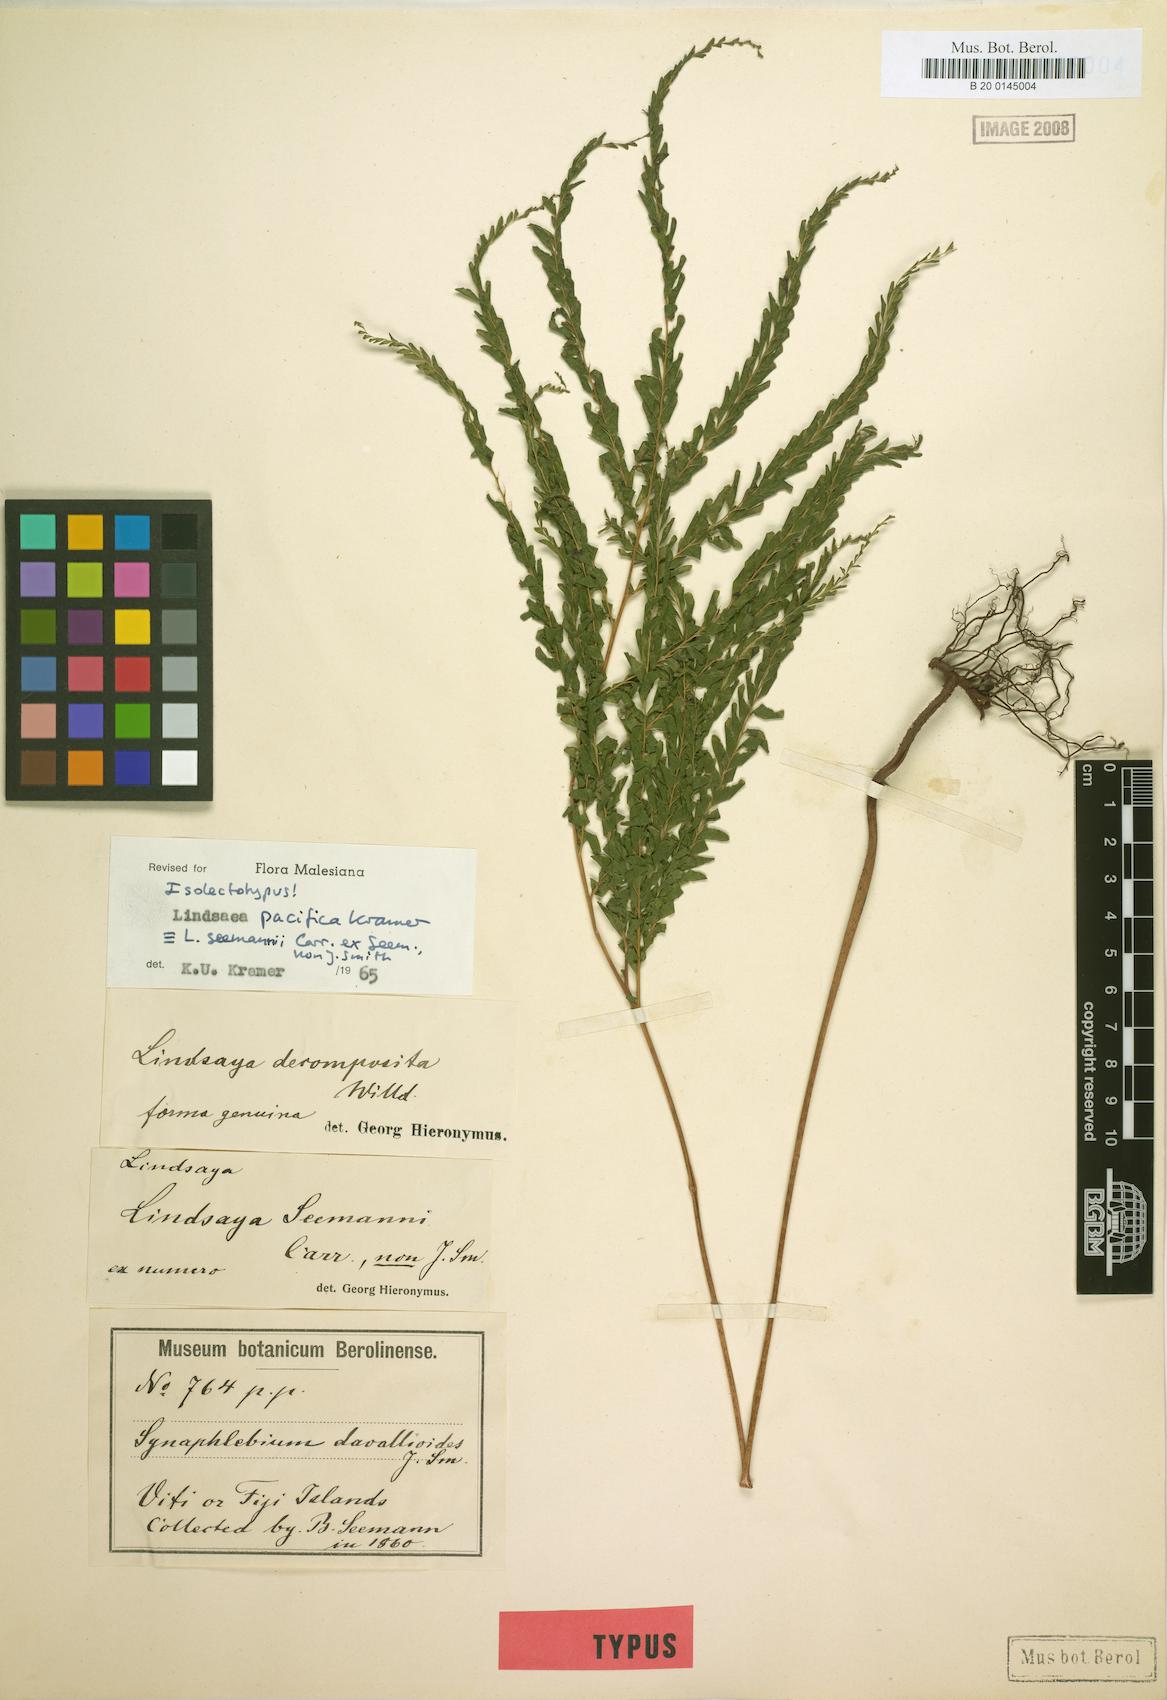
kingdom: Plantae
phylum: Tracheophyta
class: Polypodiopsida
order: Polypodiales
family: Lindsaeaceae
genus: Lindsaea
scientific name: Lindsaea pacifica
